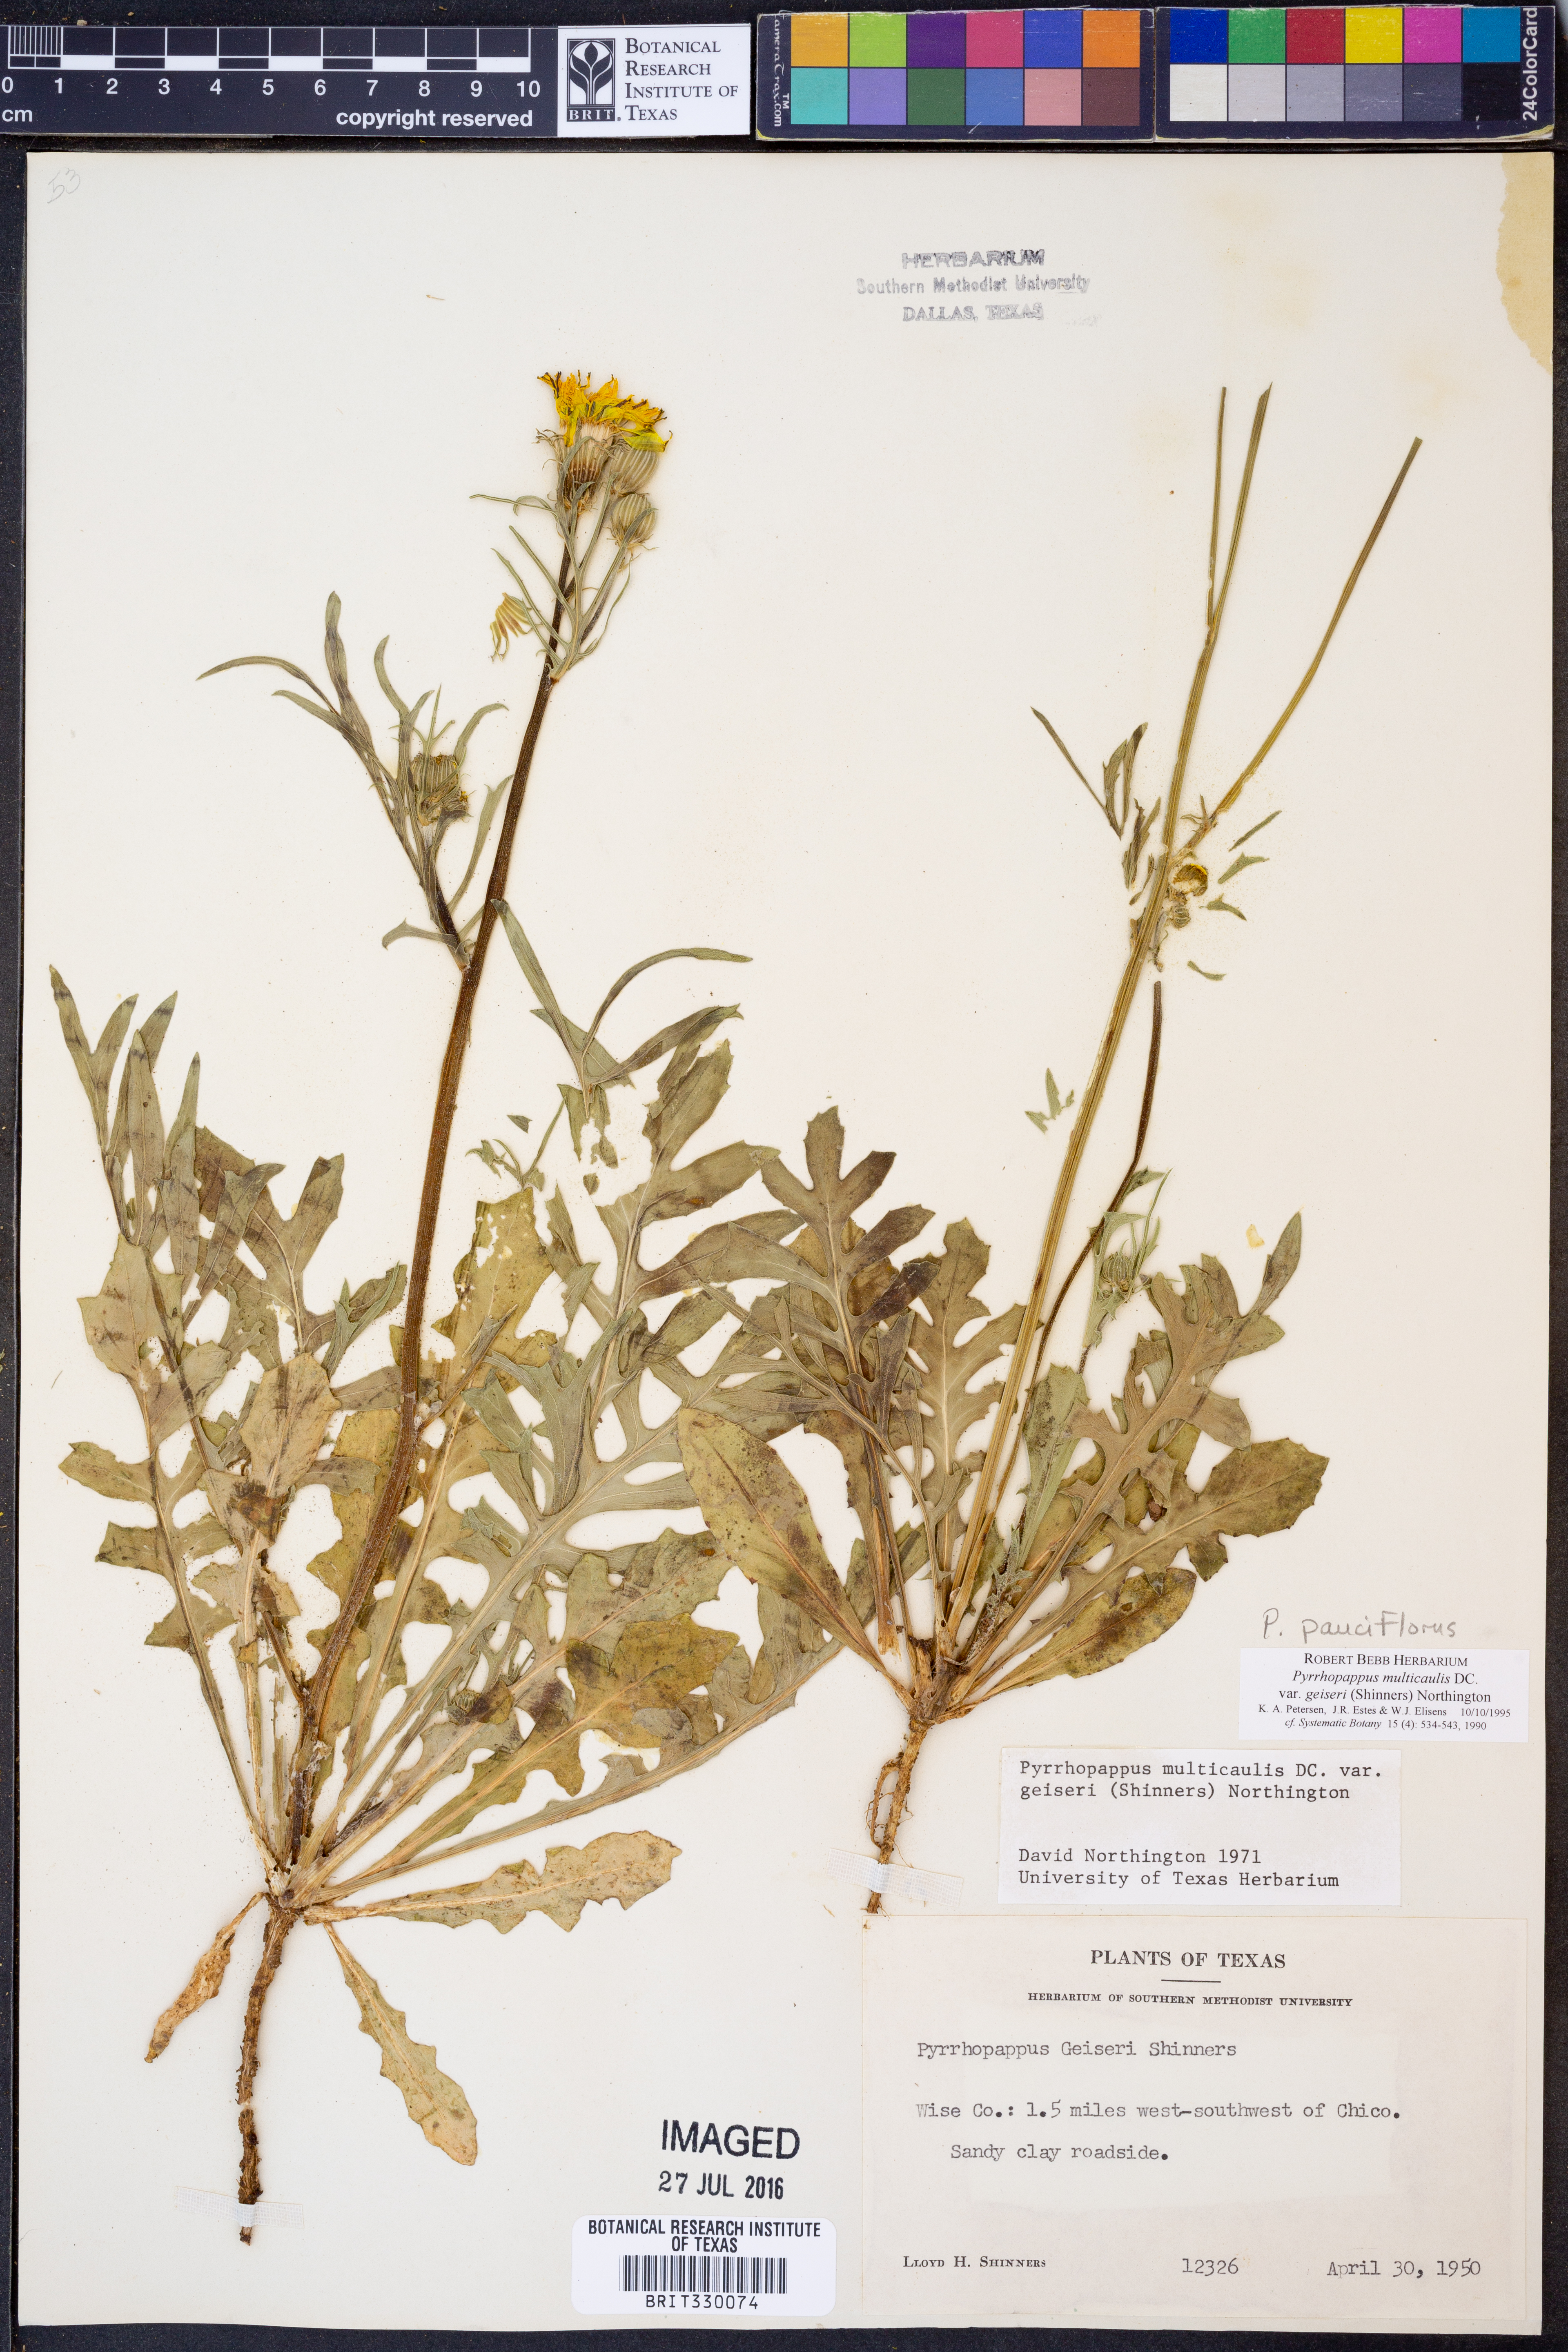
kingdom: Plantae
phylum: Tracheophyta
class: Magnoliopsida
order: Asterales
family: Asteraceae
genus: Pyrrhopappus
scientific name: Pyrrhopappus pauciflorus
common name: Texas false dandelion
